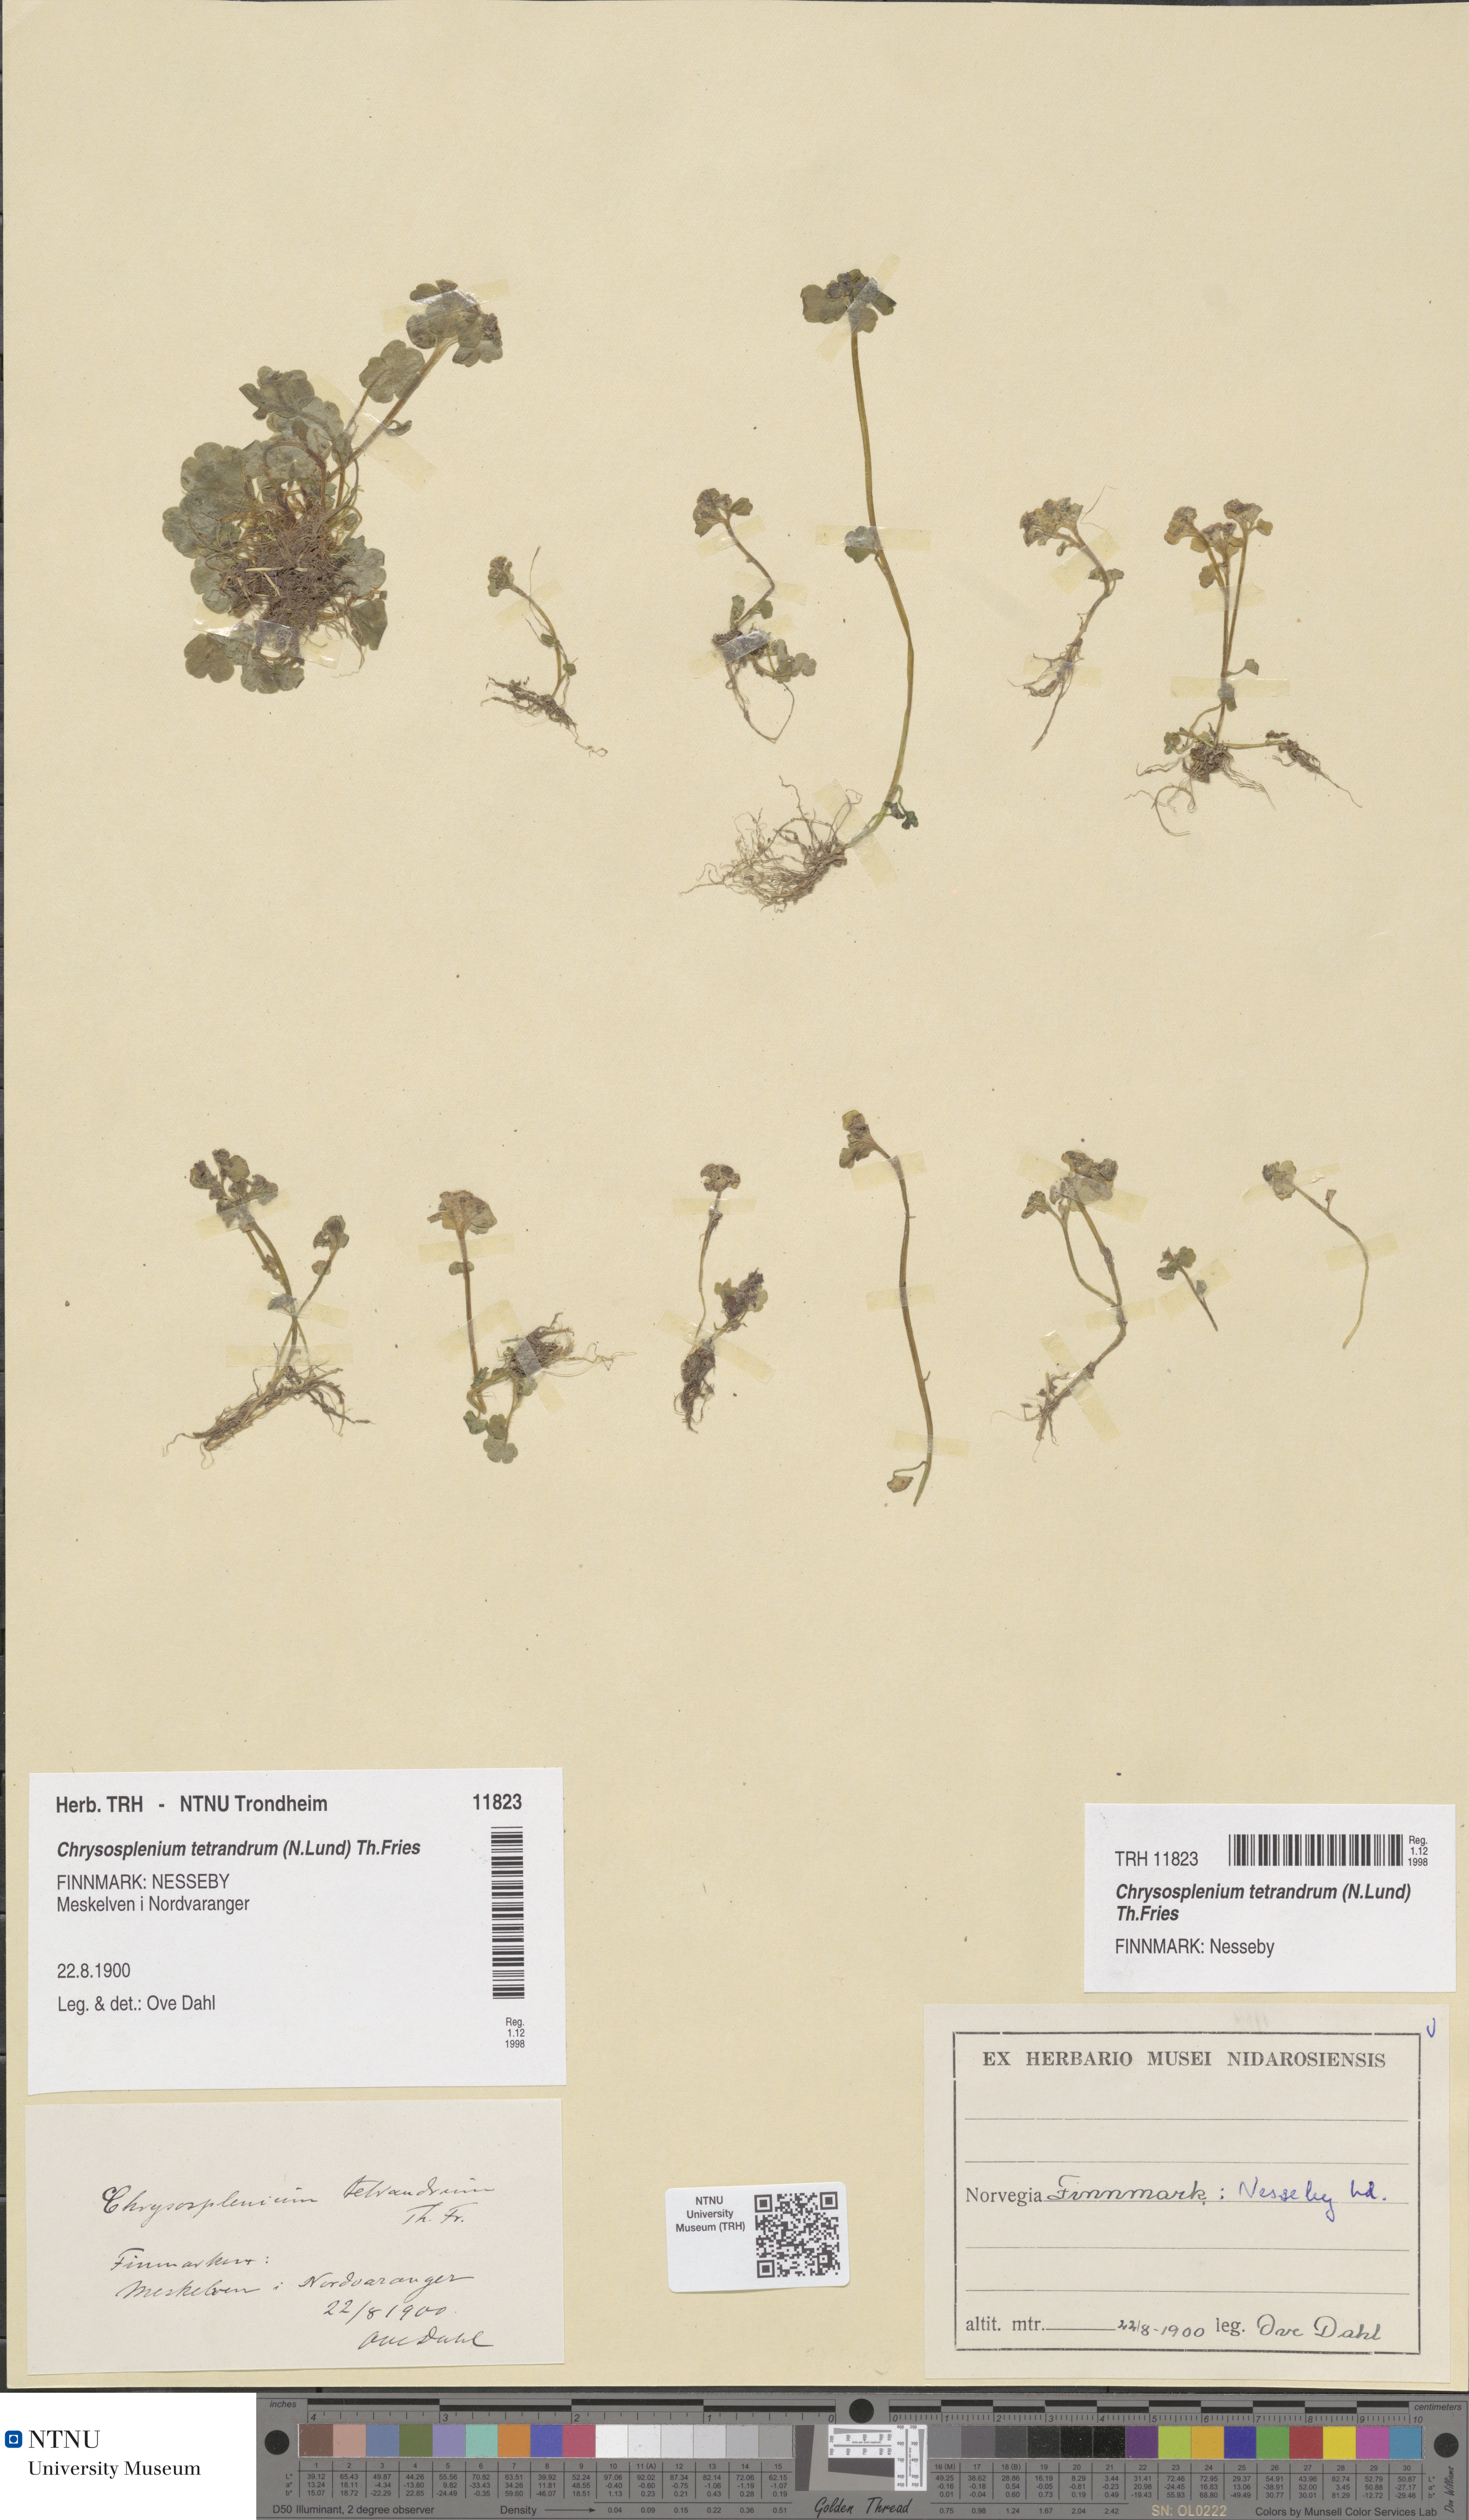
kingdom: Plantae
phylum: Tracheophyta
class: Magnoliopsida
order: Saxifragales
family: Saxifragaceae
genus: Chrysosplenium
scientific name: Chrysosplenium tetrandrum
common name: Green saxifrage
